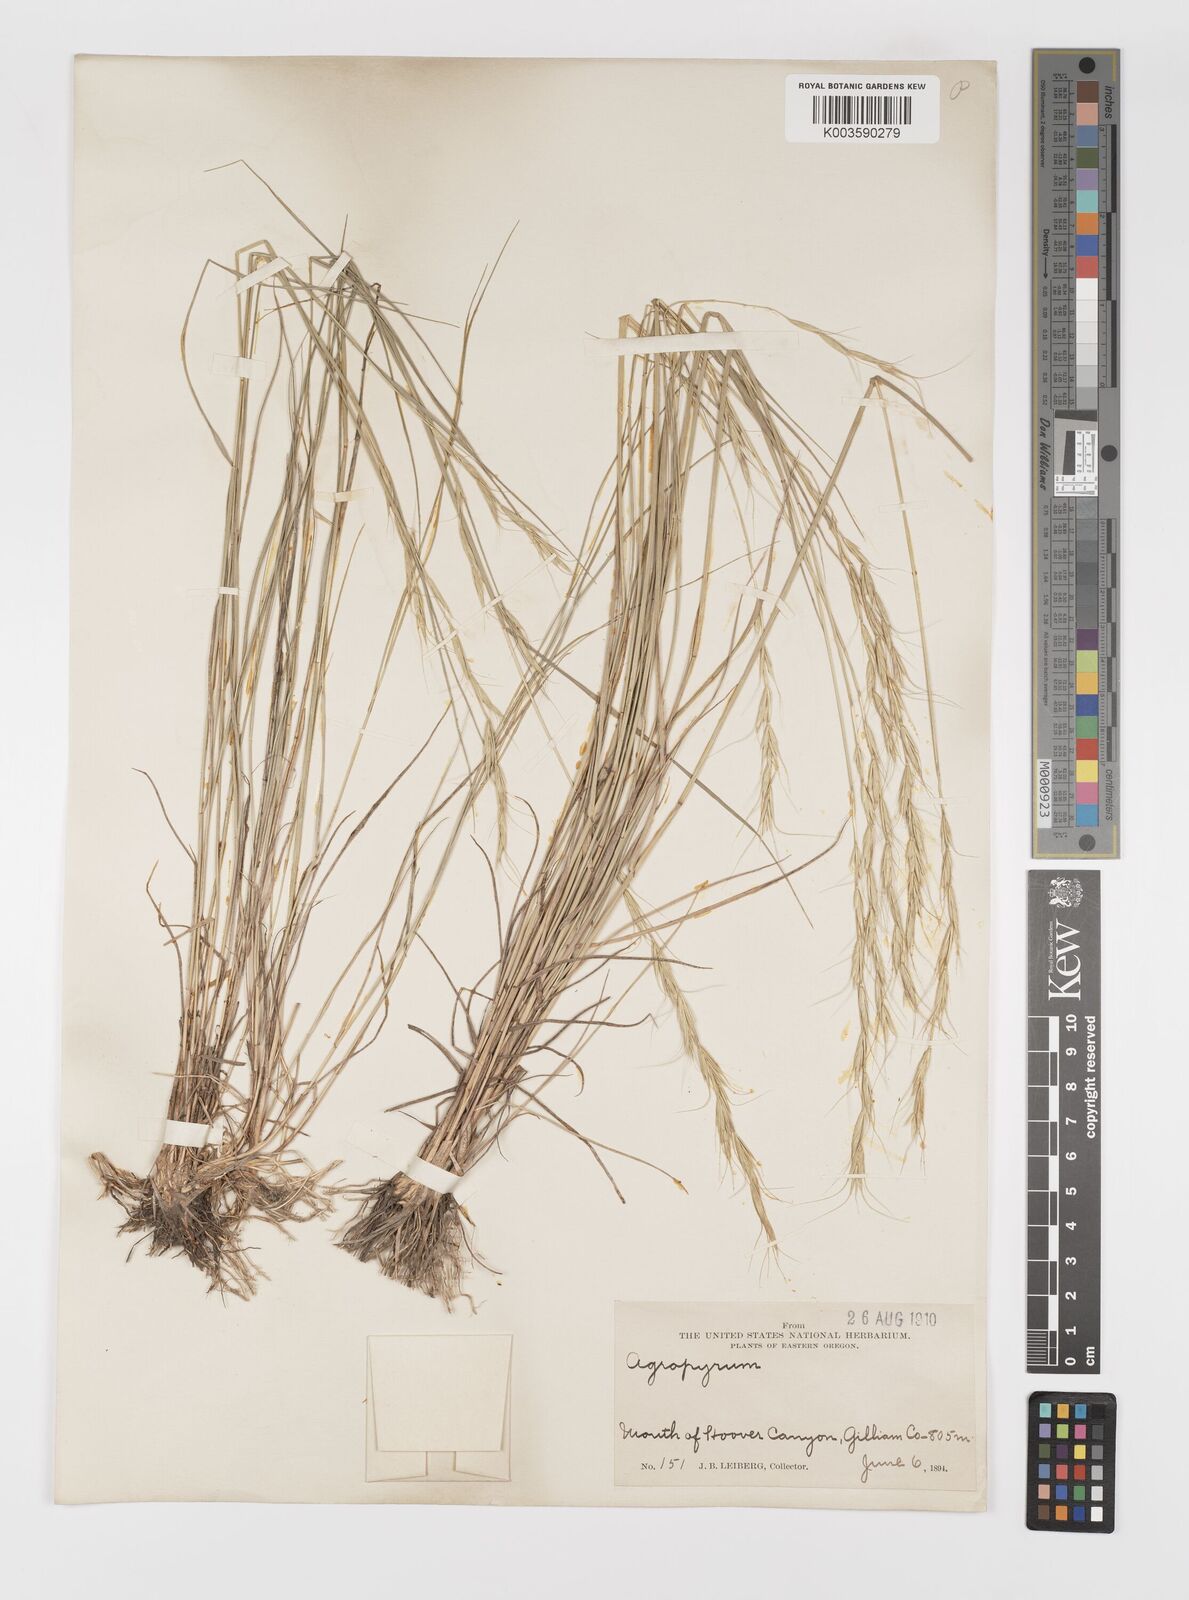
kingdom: Plantae
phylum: Tracheophyta
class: Liliopsida
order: Poales
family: Poaceae
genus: Elymus
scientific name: Elymus
